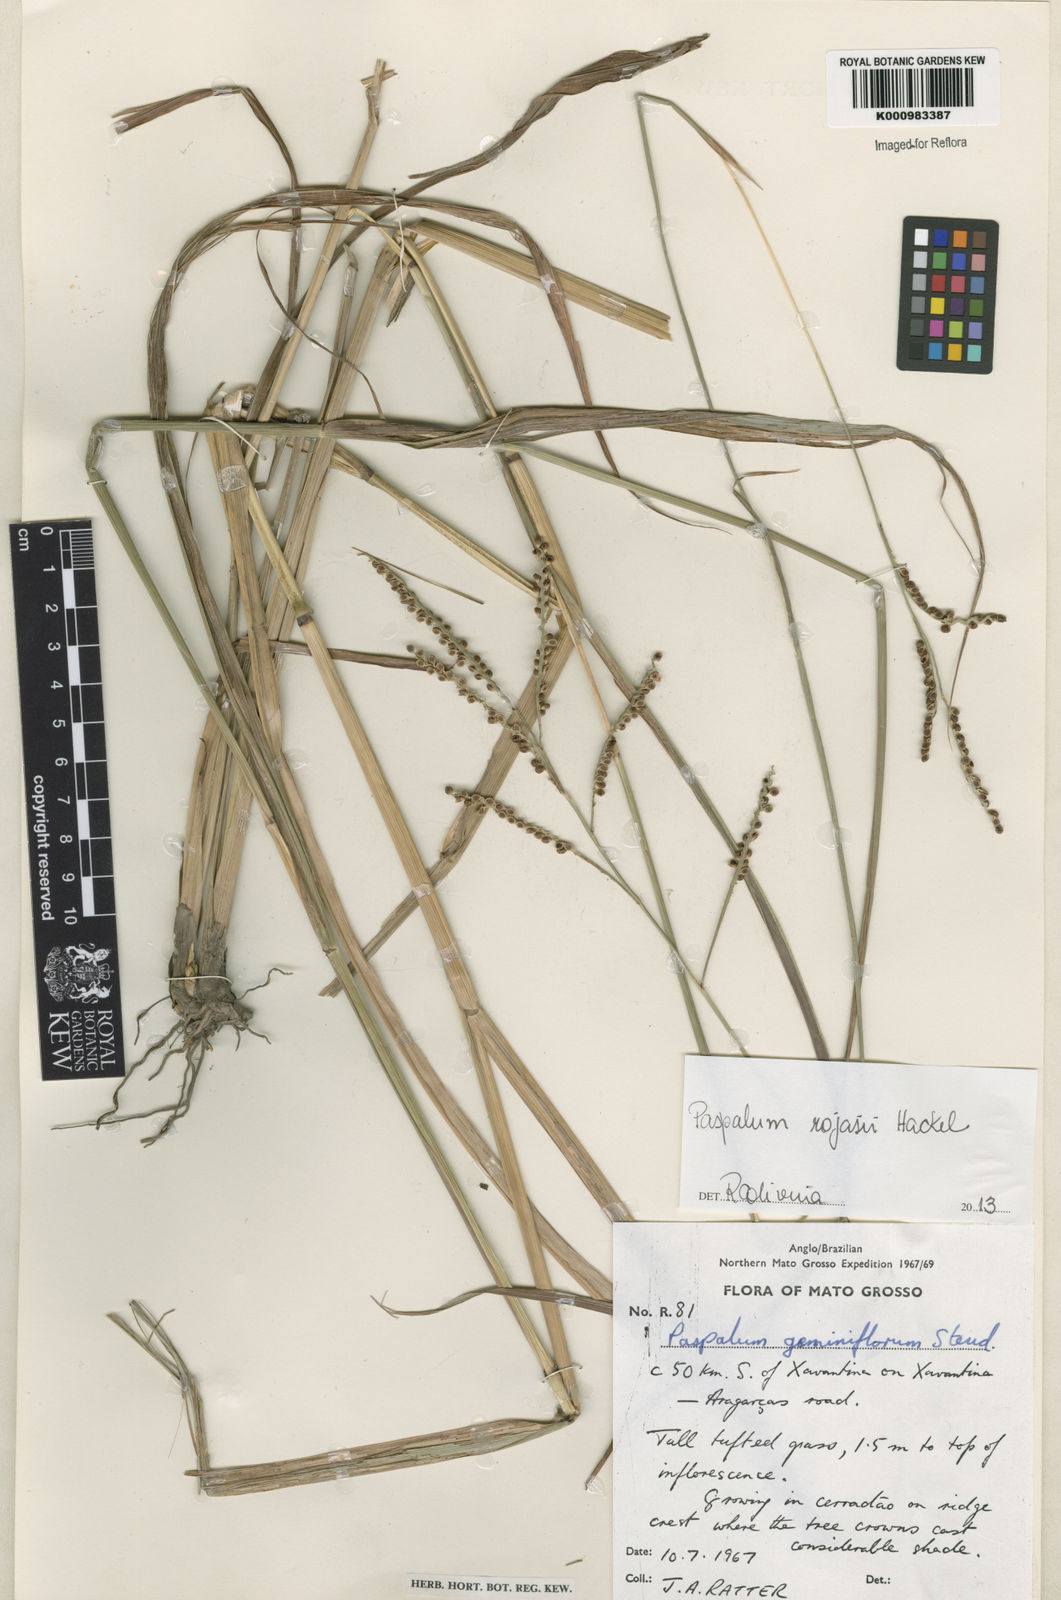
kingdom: Plantae
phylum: Tracheophyta
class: Liliopsida
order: Poales
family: Poaceae
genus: Paspalum
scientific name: Paspalum guenoarum
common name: Wintergreen paspalum
